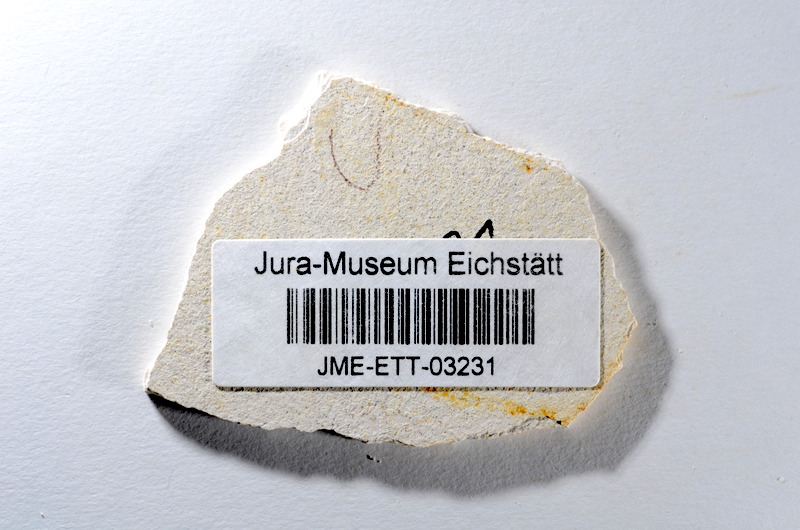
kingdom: Animalia
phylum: Chordata
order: Salmoniformes
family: Orthogonikleithridae
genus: Orthogonikleithrus
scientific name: Orthogonikleithrus hoelli
